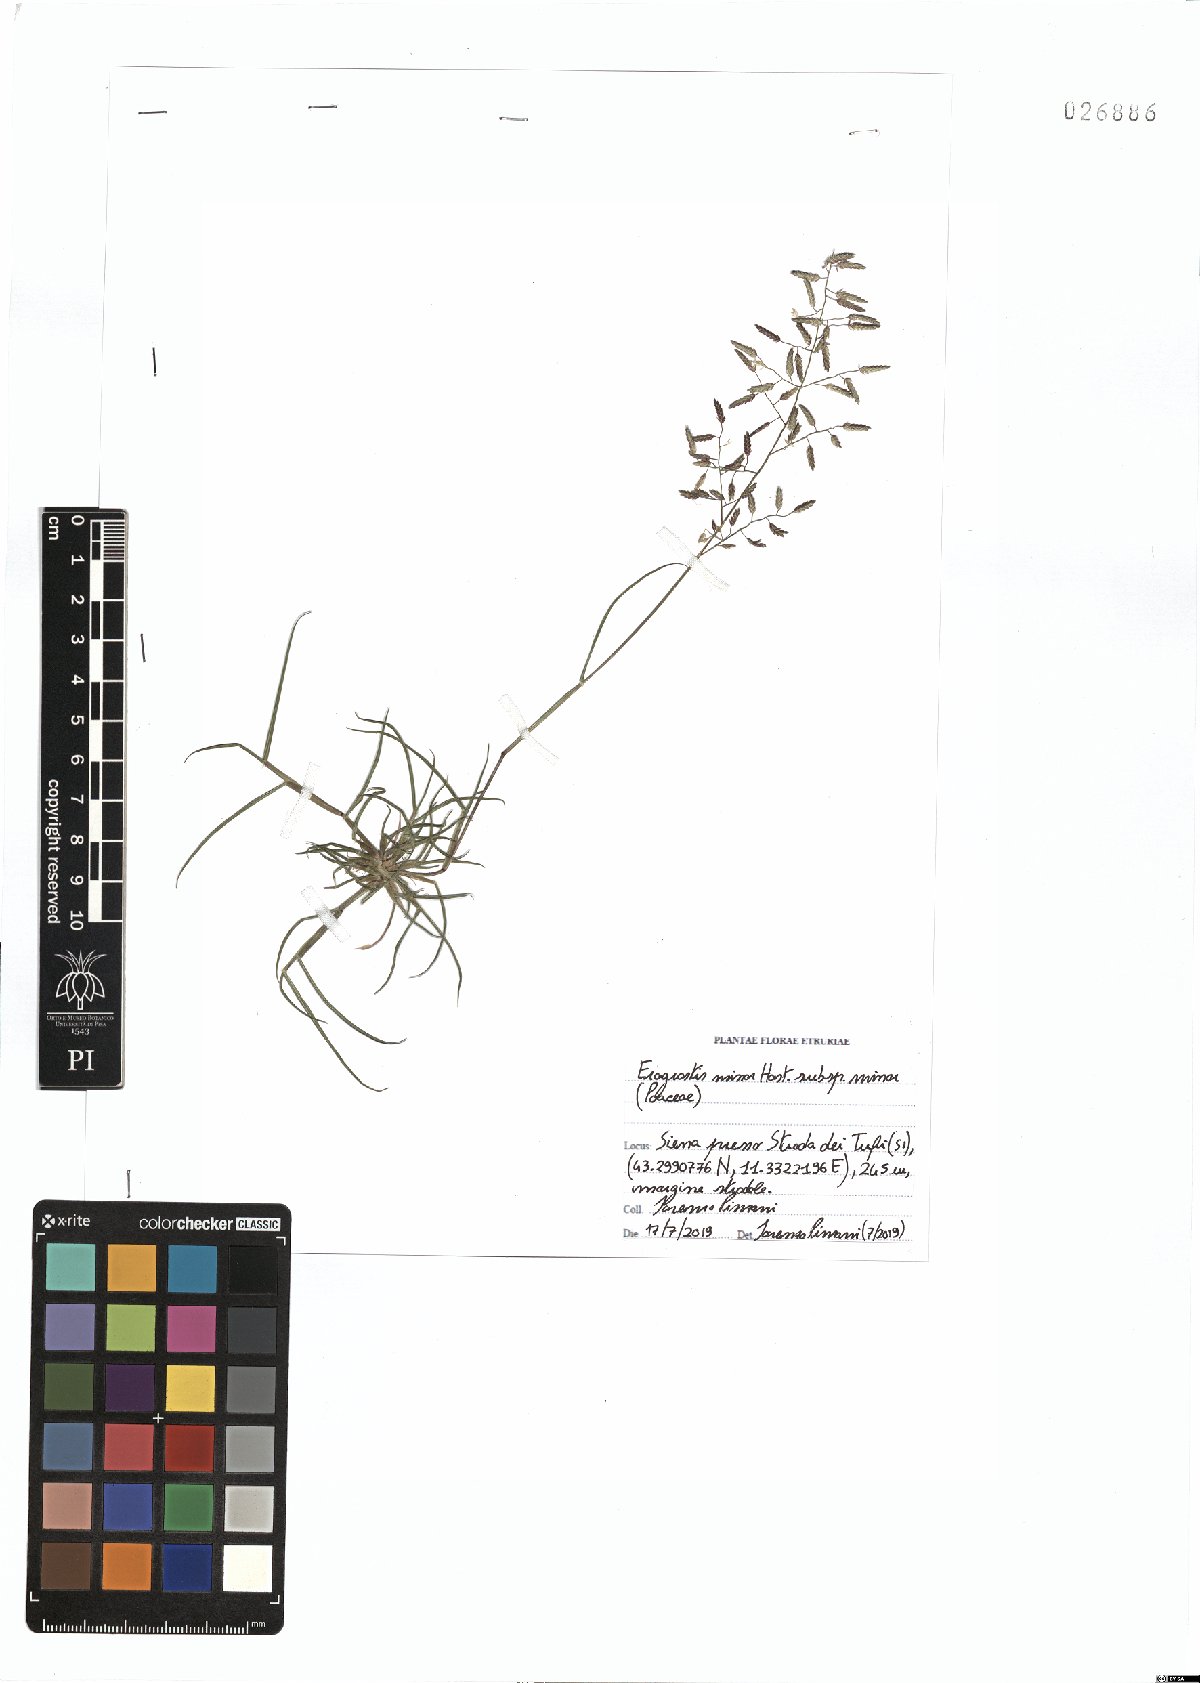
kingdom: Plantae
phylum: Tracheophyta
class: Liliopsida
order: Poales
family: Poaceae
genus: Eragrostis
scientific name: Eragrostis minor
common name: Small love-grass
